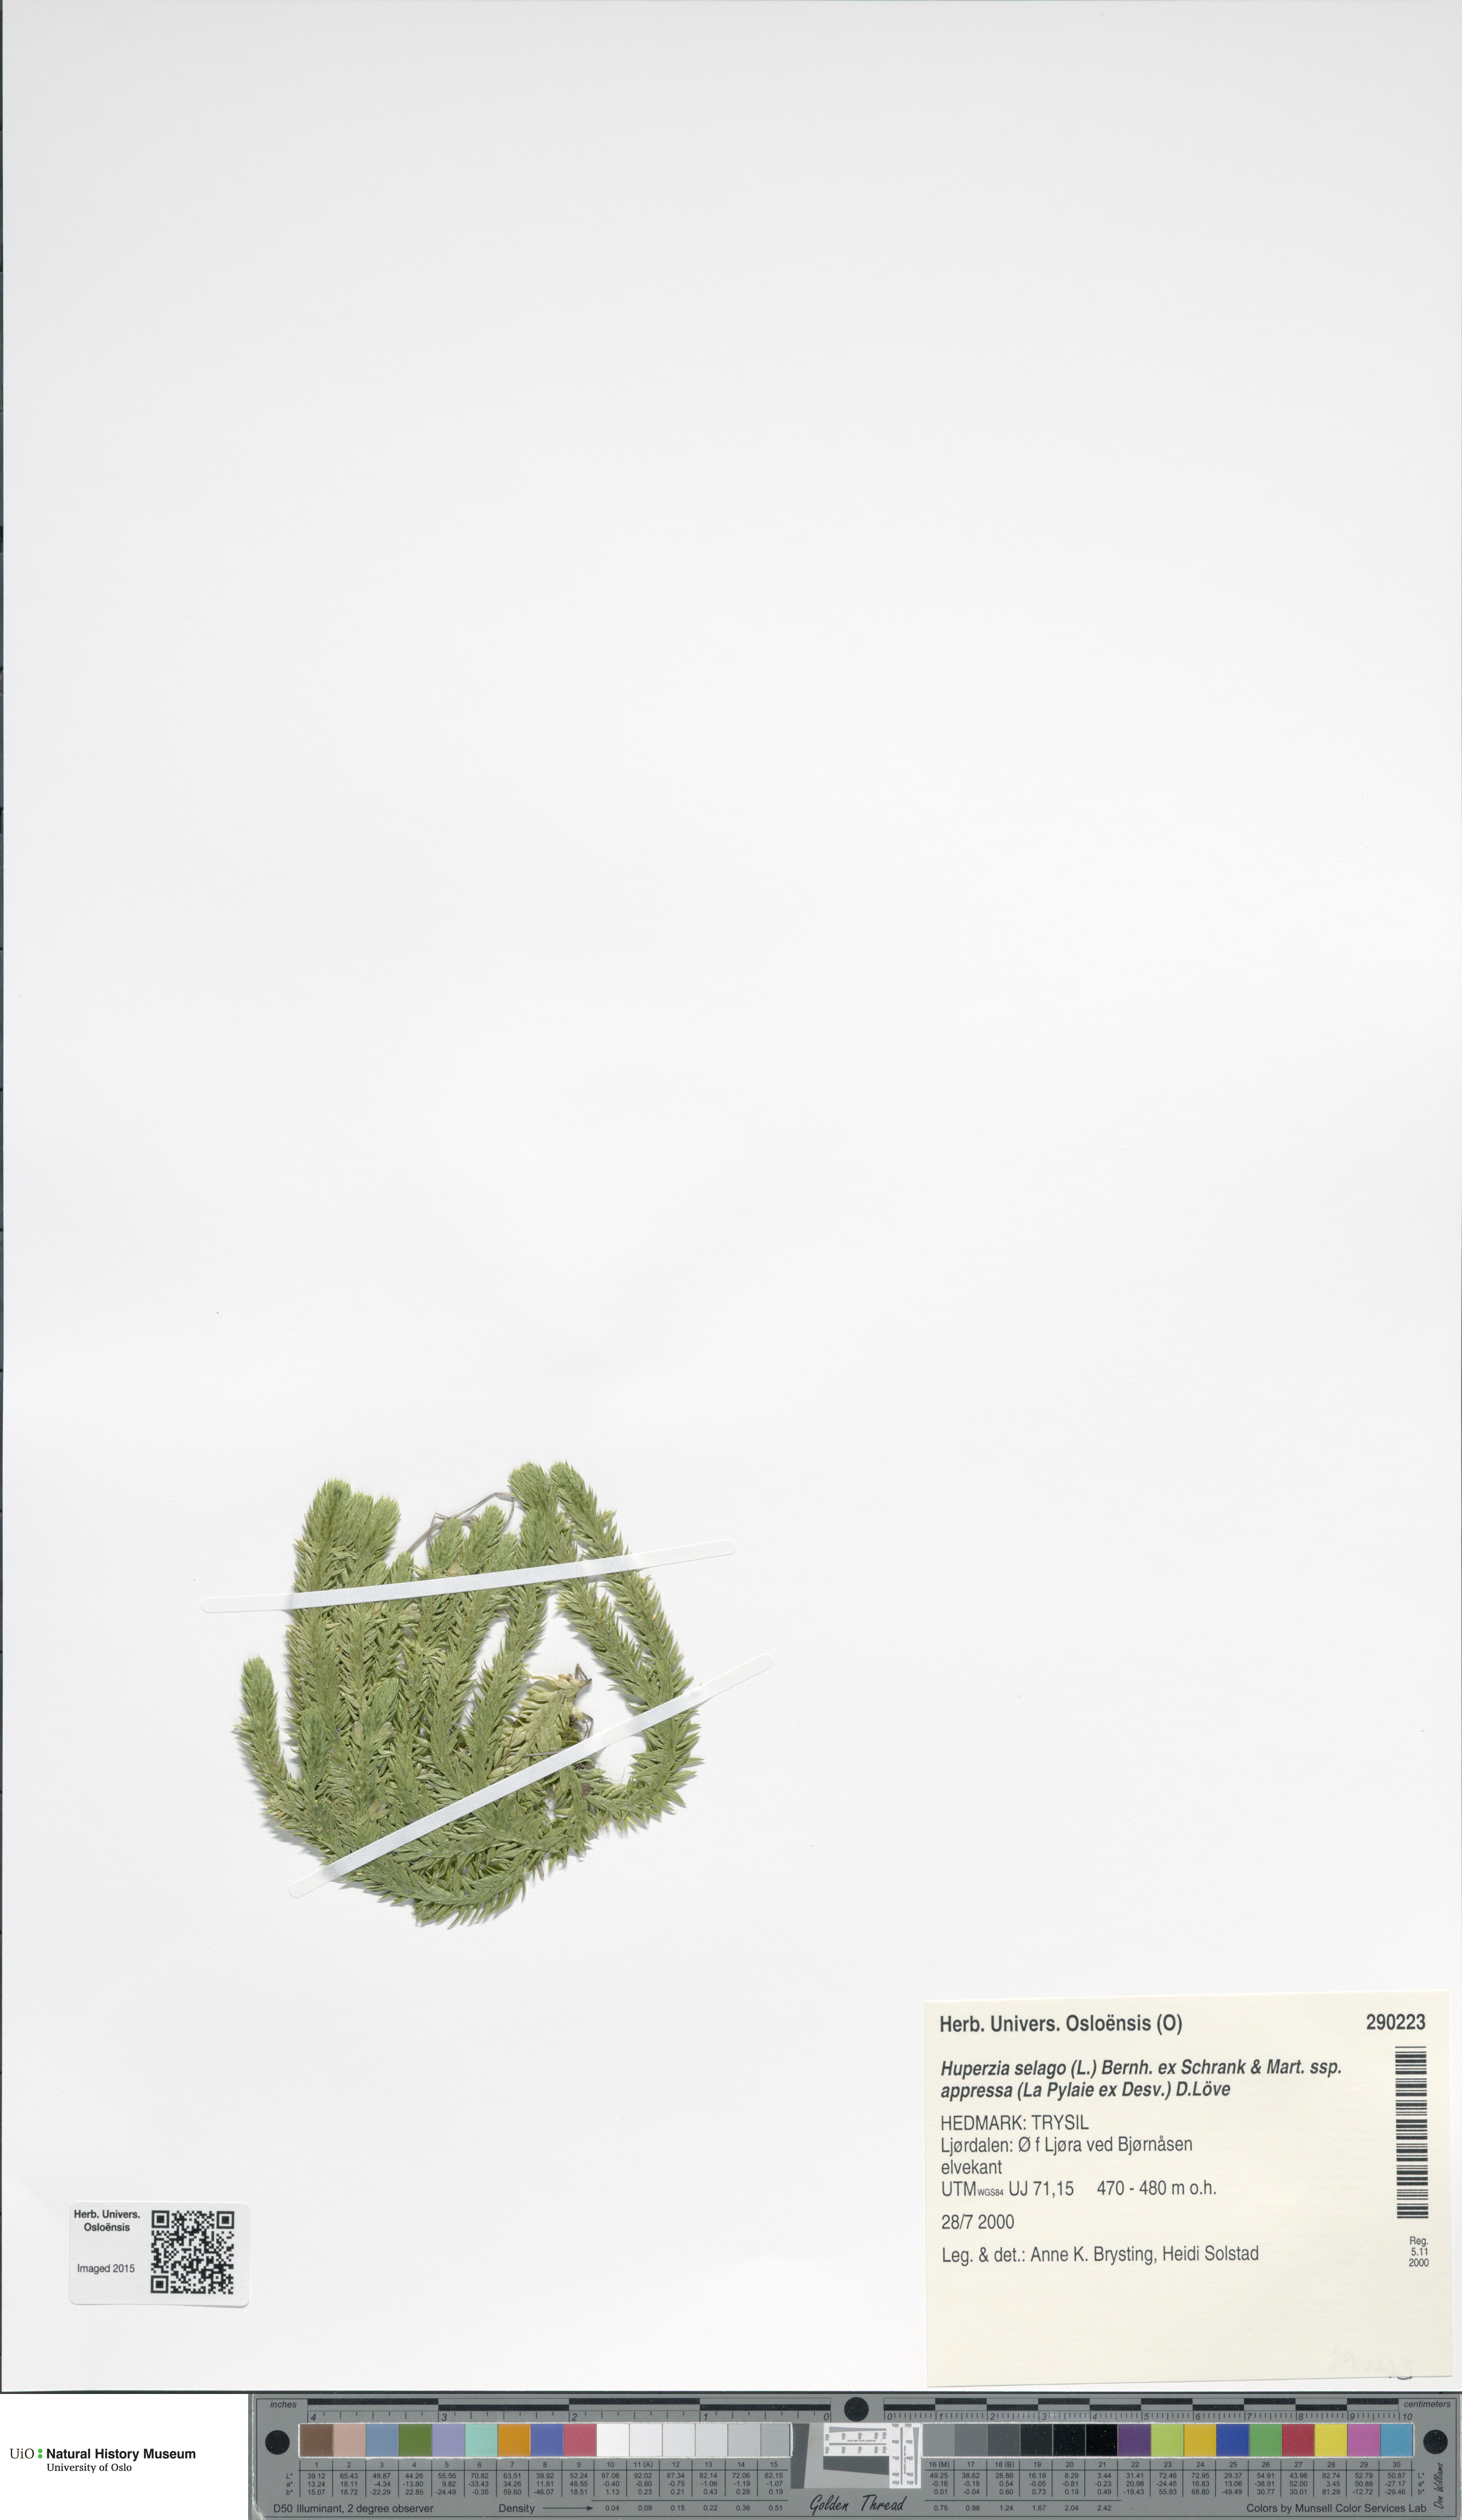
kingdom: Plantae
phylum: Tracheophyta
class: Lycopodiopsida
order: Lycopodiales
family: Lycopodiaceae
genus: Huperzia
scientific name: Huperzia selago
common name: Northern firmoss
